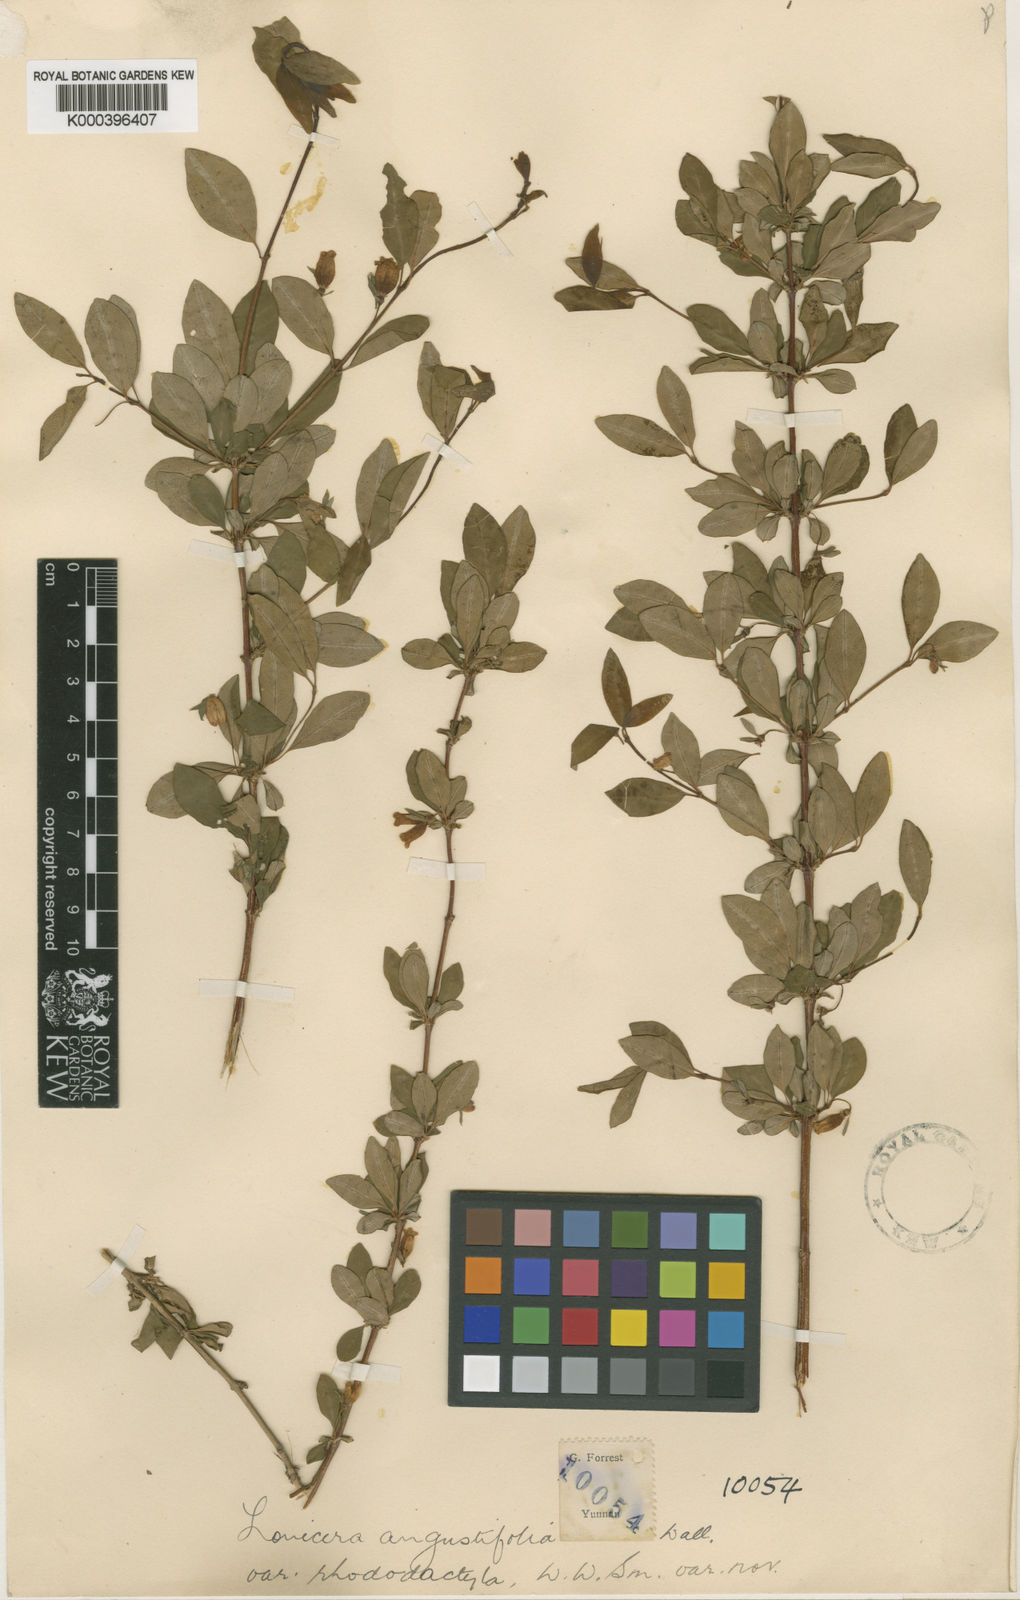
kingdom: Plantae
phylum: Tracheophyta
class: Magnoliopsida
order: Dipsacales
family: Caprifoliaceae
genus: Lonicera
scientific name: Lonicera angustifolia
